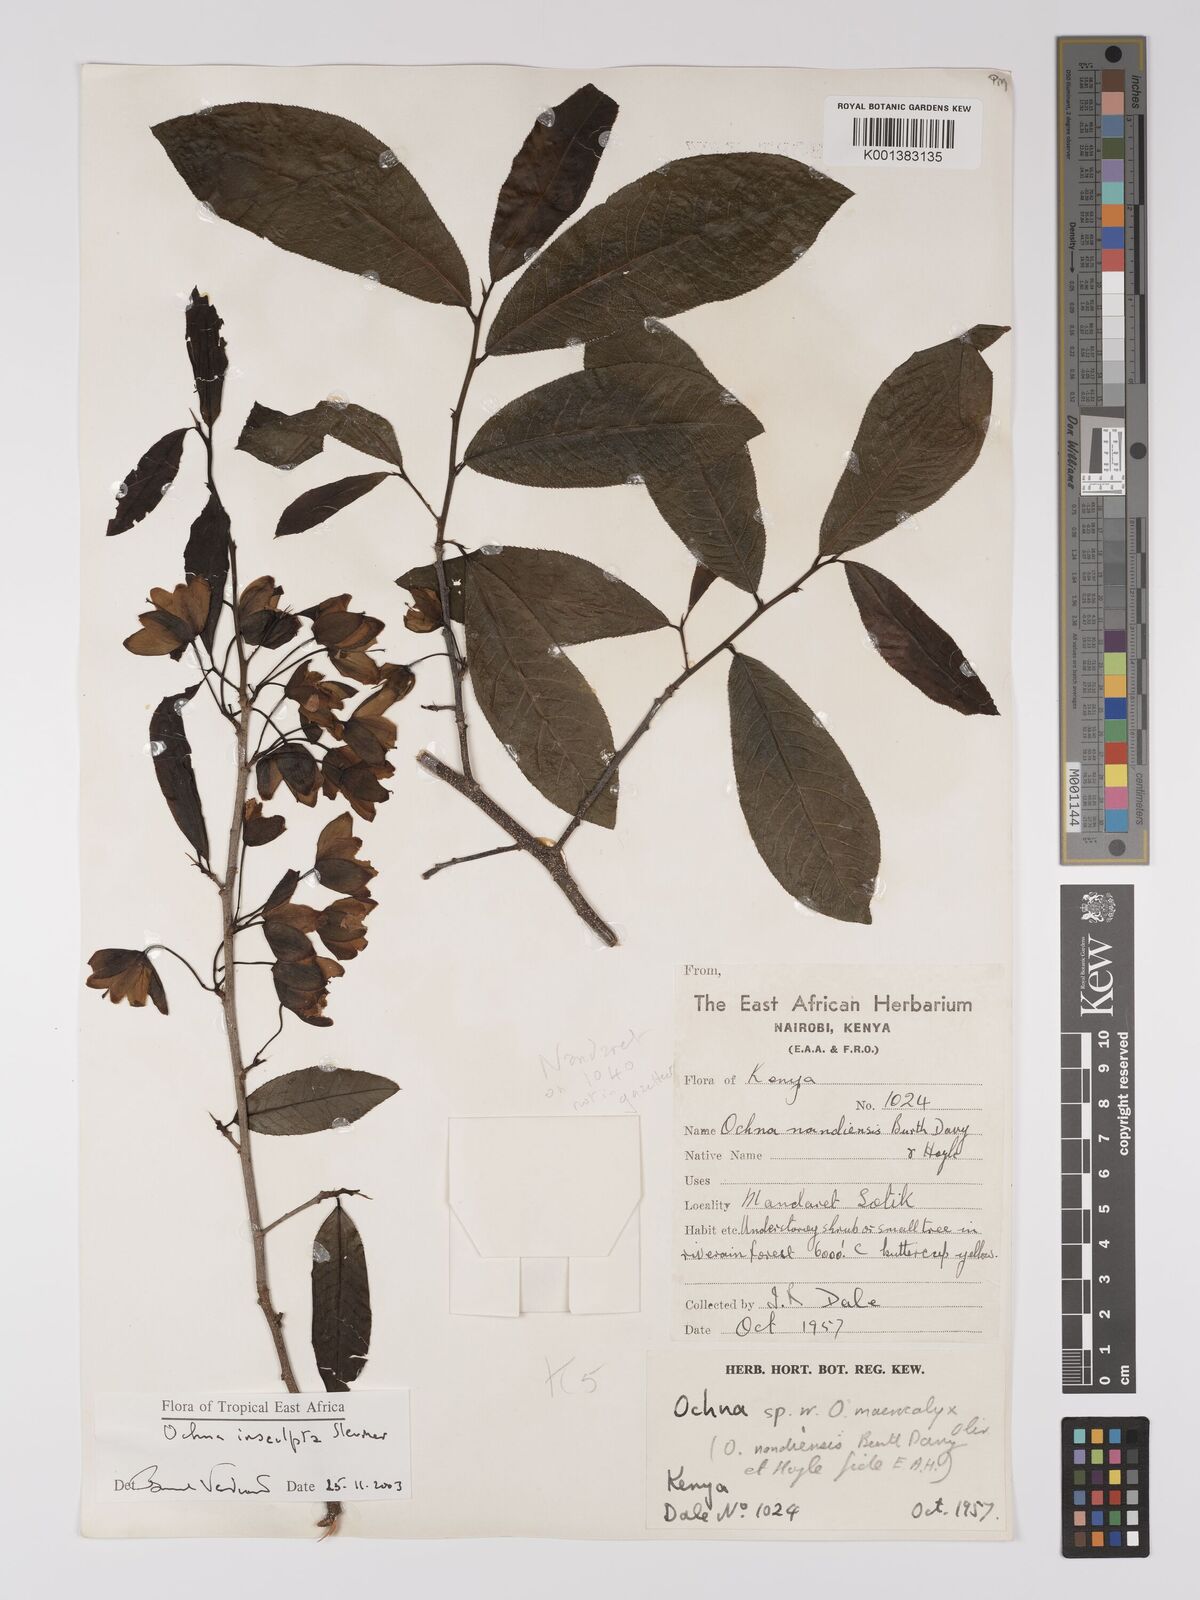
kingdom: Plantae
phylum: Tracheophyta
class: Magnoliopsida
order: Malpighiales
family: Ochnaceae
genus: Ochna
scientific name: Ochna insculpta
